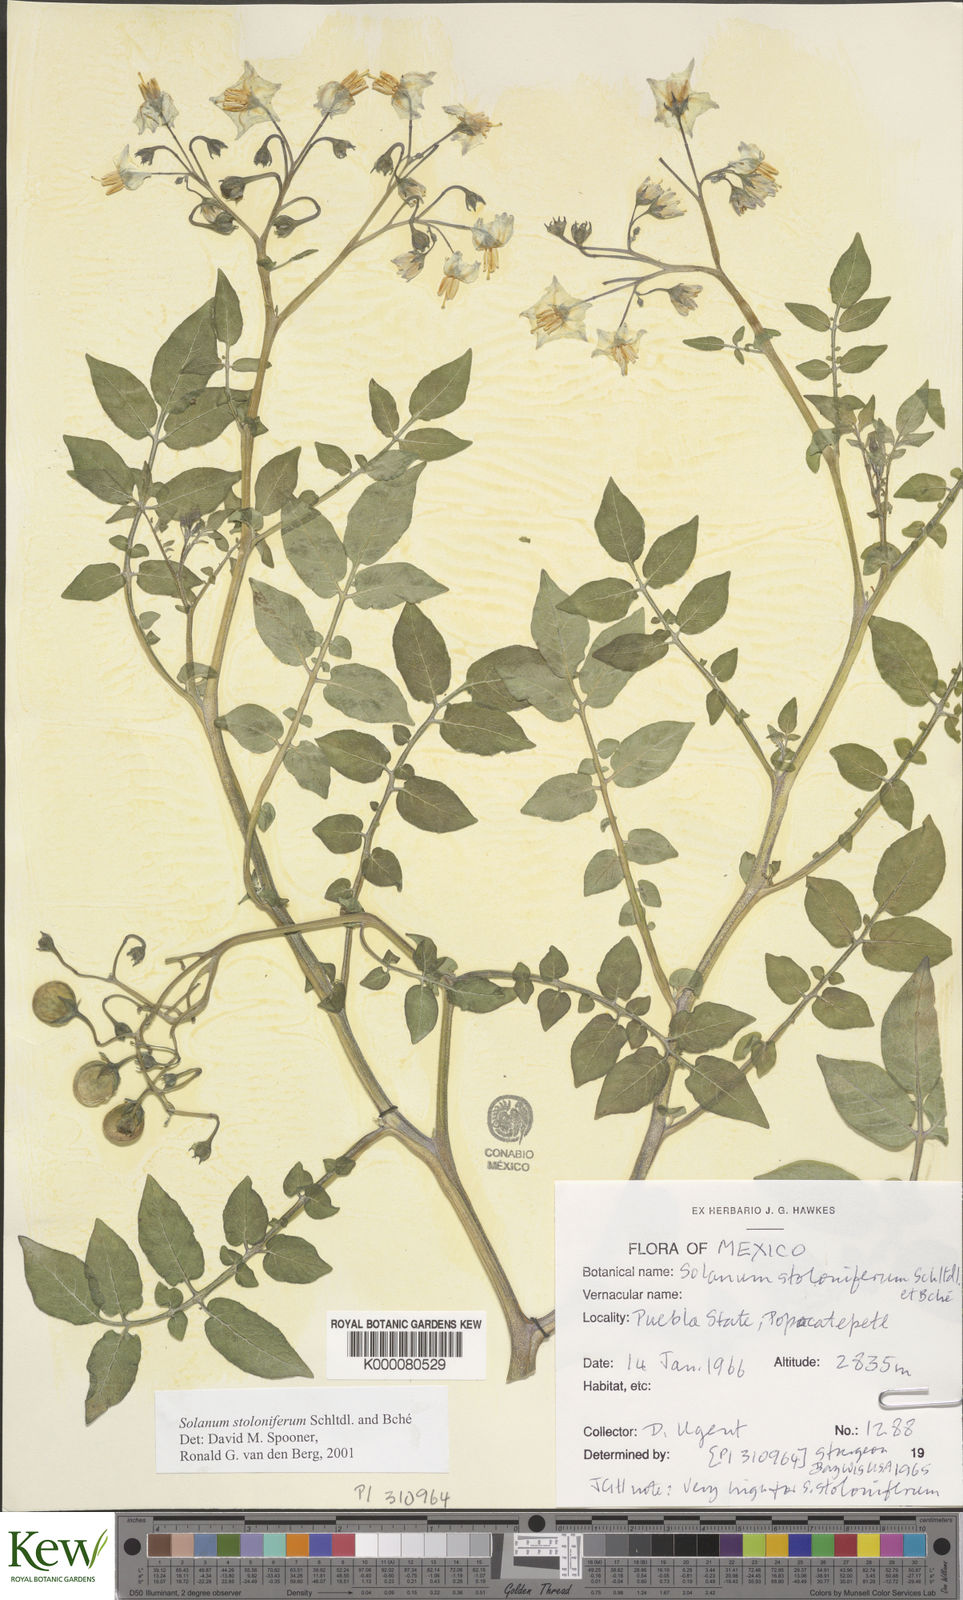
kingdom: Plantae
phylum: Tracheophyta
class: Magnoliopsida
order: Solanales
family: Solanaceae
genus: Solanum
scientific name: Solanum stoloniferum
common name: Fendler's nighshade
